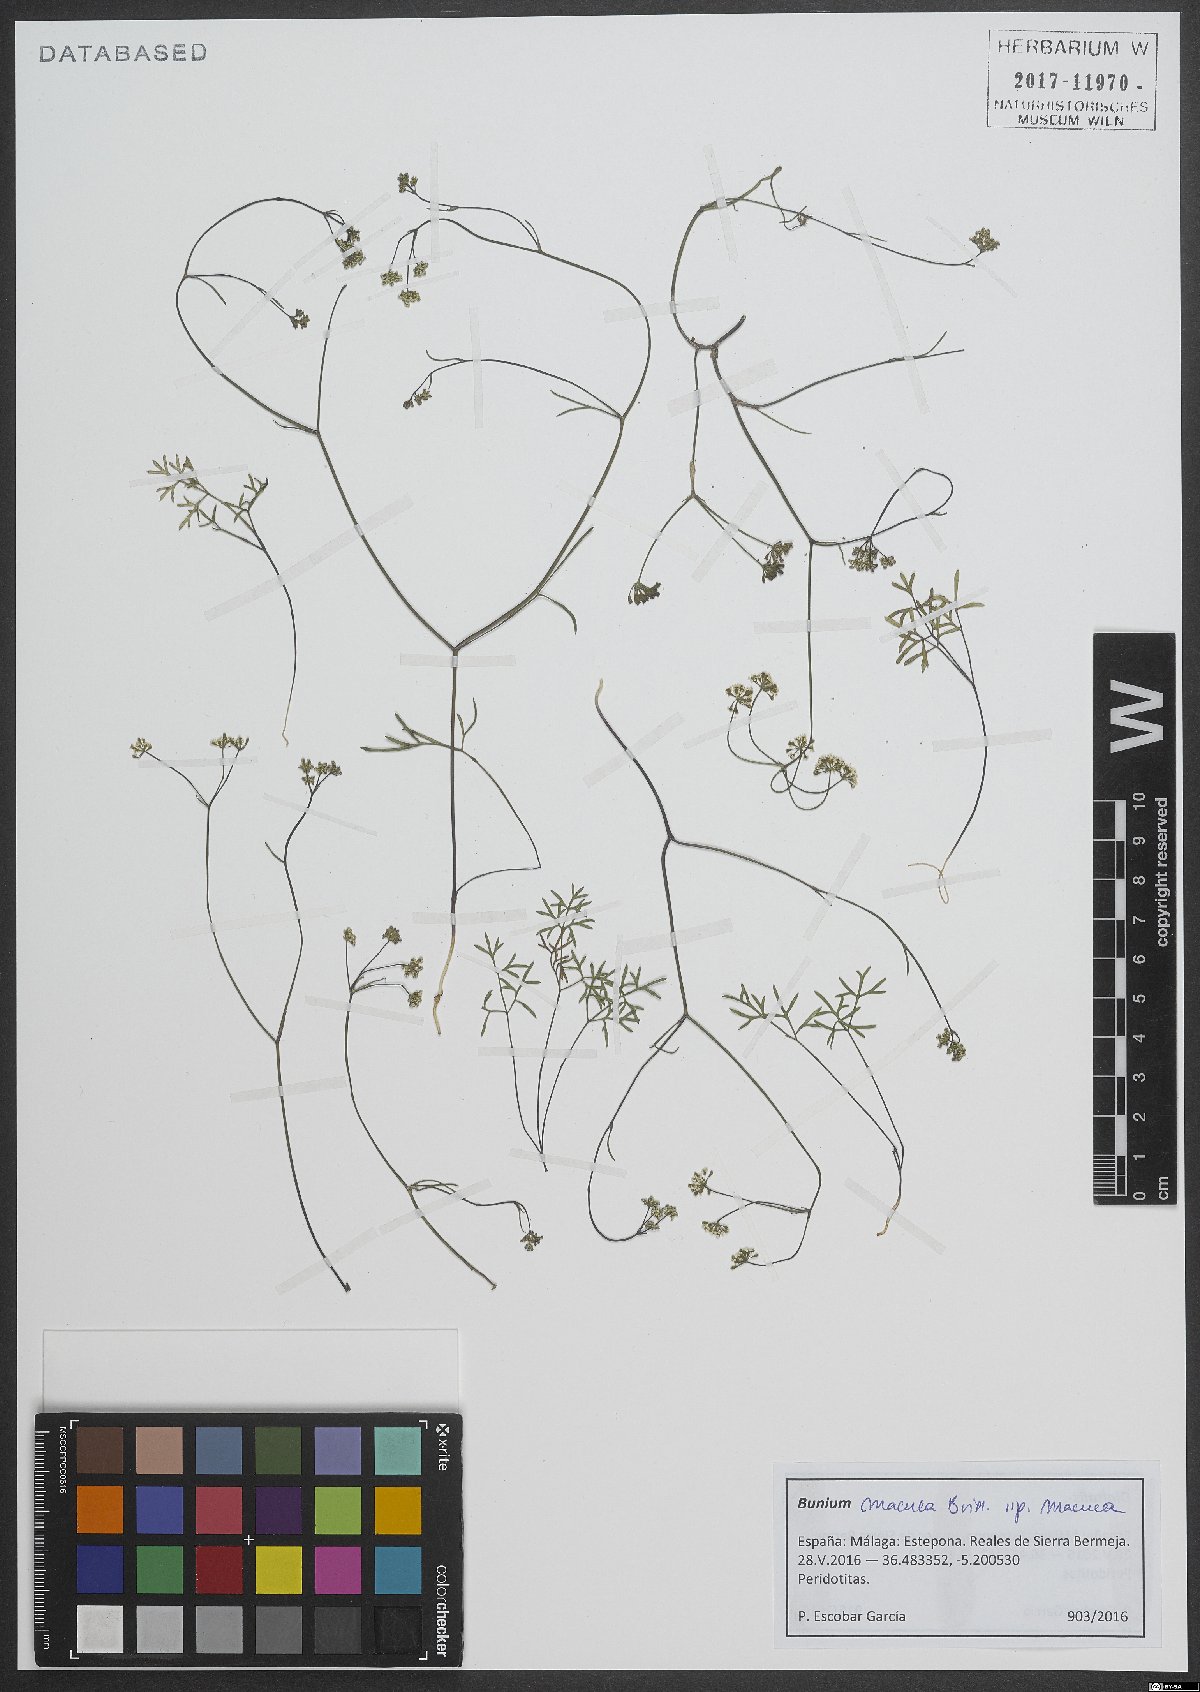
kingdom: Plantae
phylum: Tracheophyta
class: Magnoliopsida
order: Apiales
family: Apiaceae
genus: Bunium
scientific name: Bunium macuca
